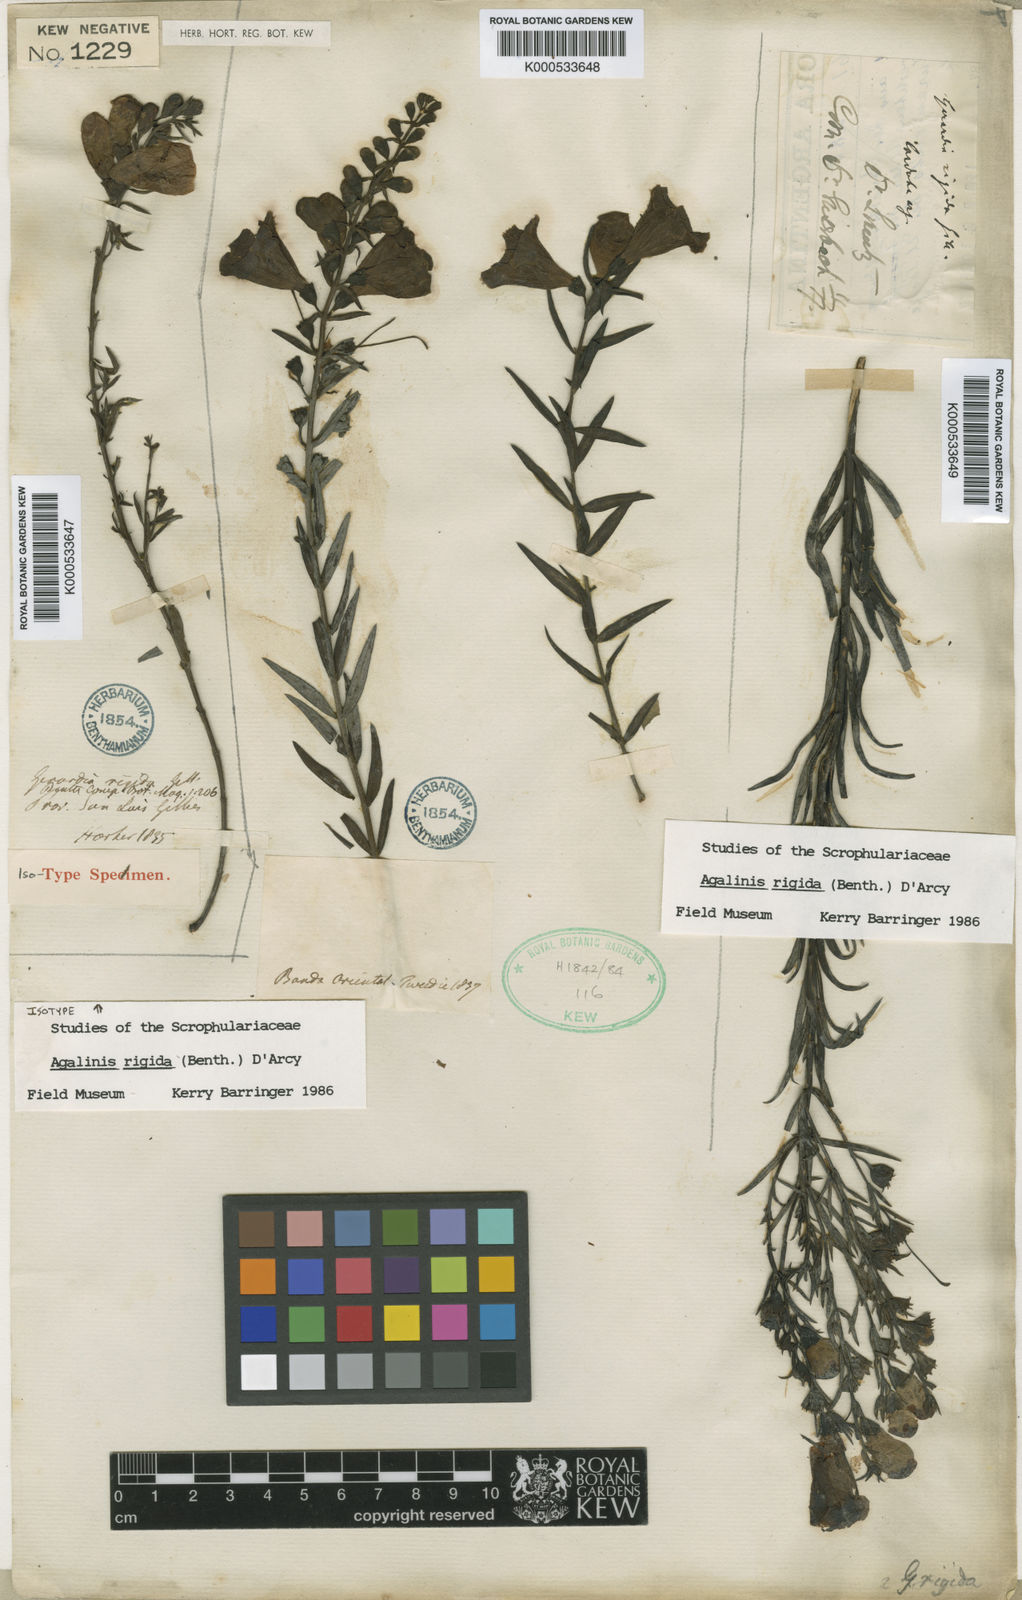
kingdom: Plantae
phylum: Tracheophyta
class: Magnoliopsida
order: Lamiales
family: Orobanchaceae
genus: Agalinis
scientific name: Agalinis rigida
